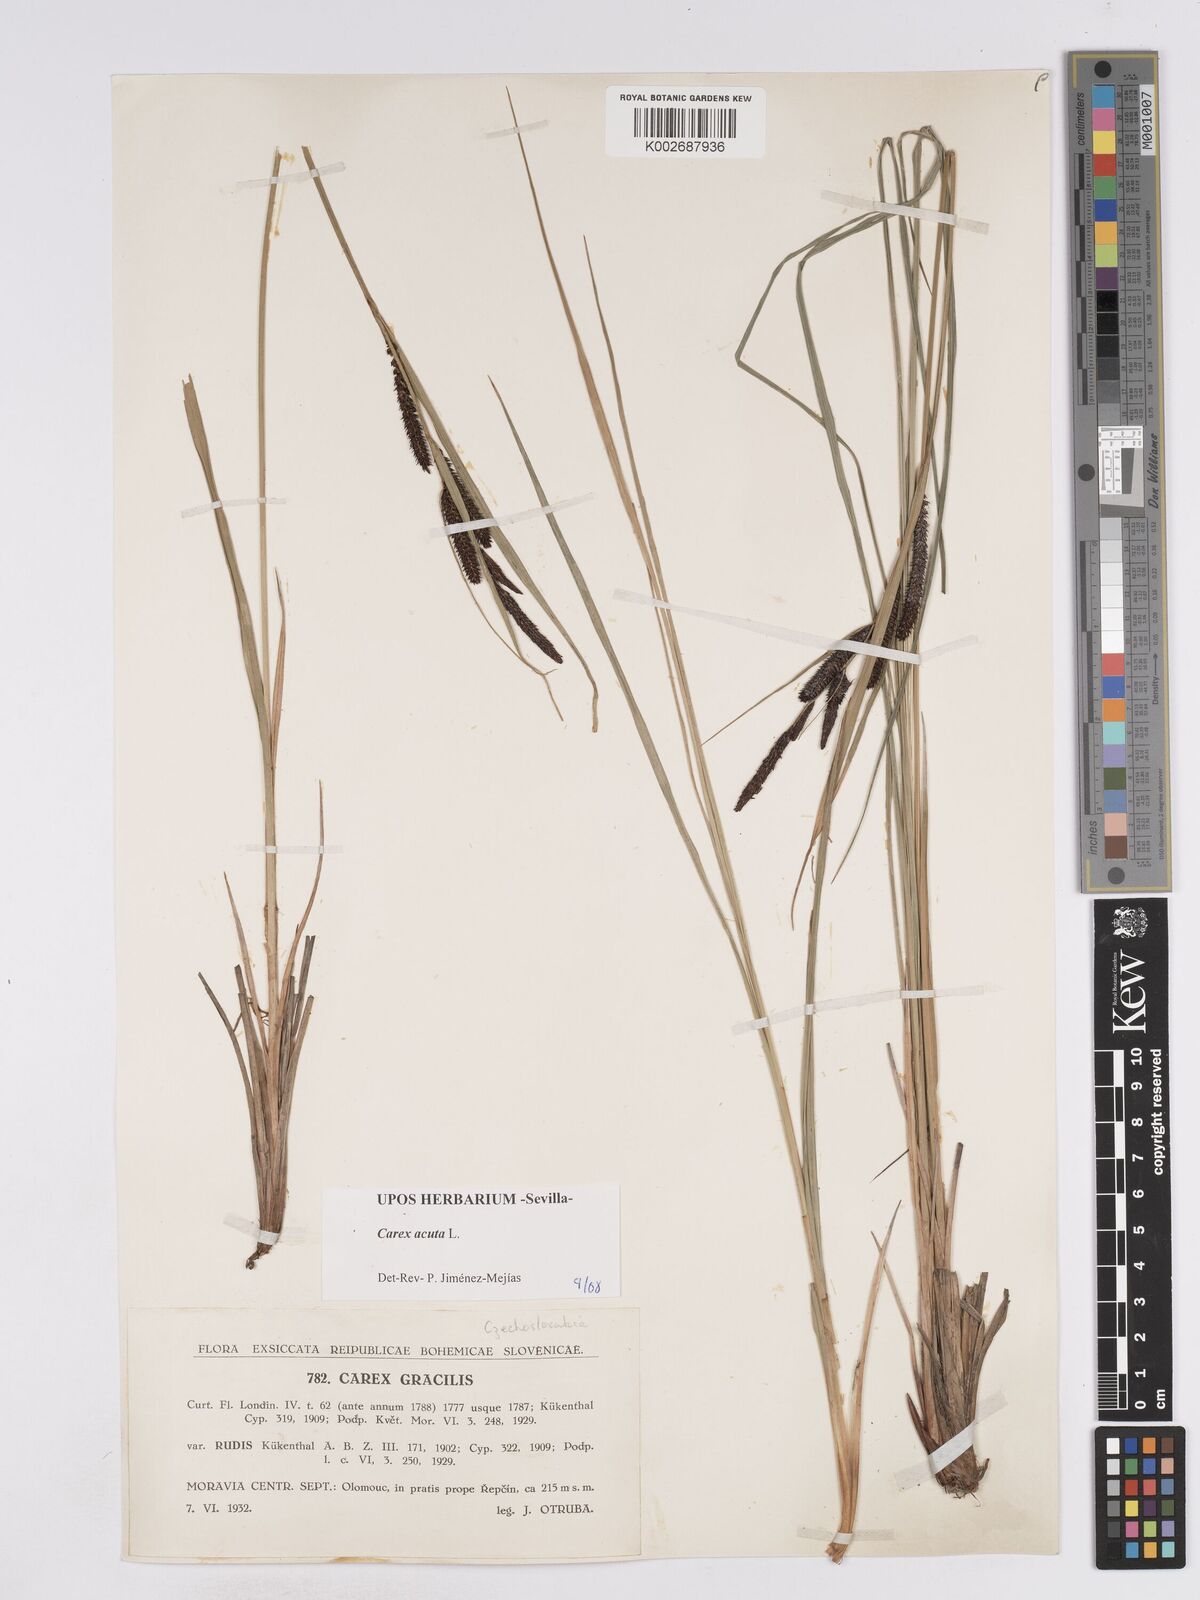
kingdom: Plantae
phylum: Tracheophyta
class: Liliopsida
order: Poales
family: Cyperaceae
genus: Carex
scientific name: Carex acuta
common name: Slender tufted-sedge
